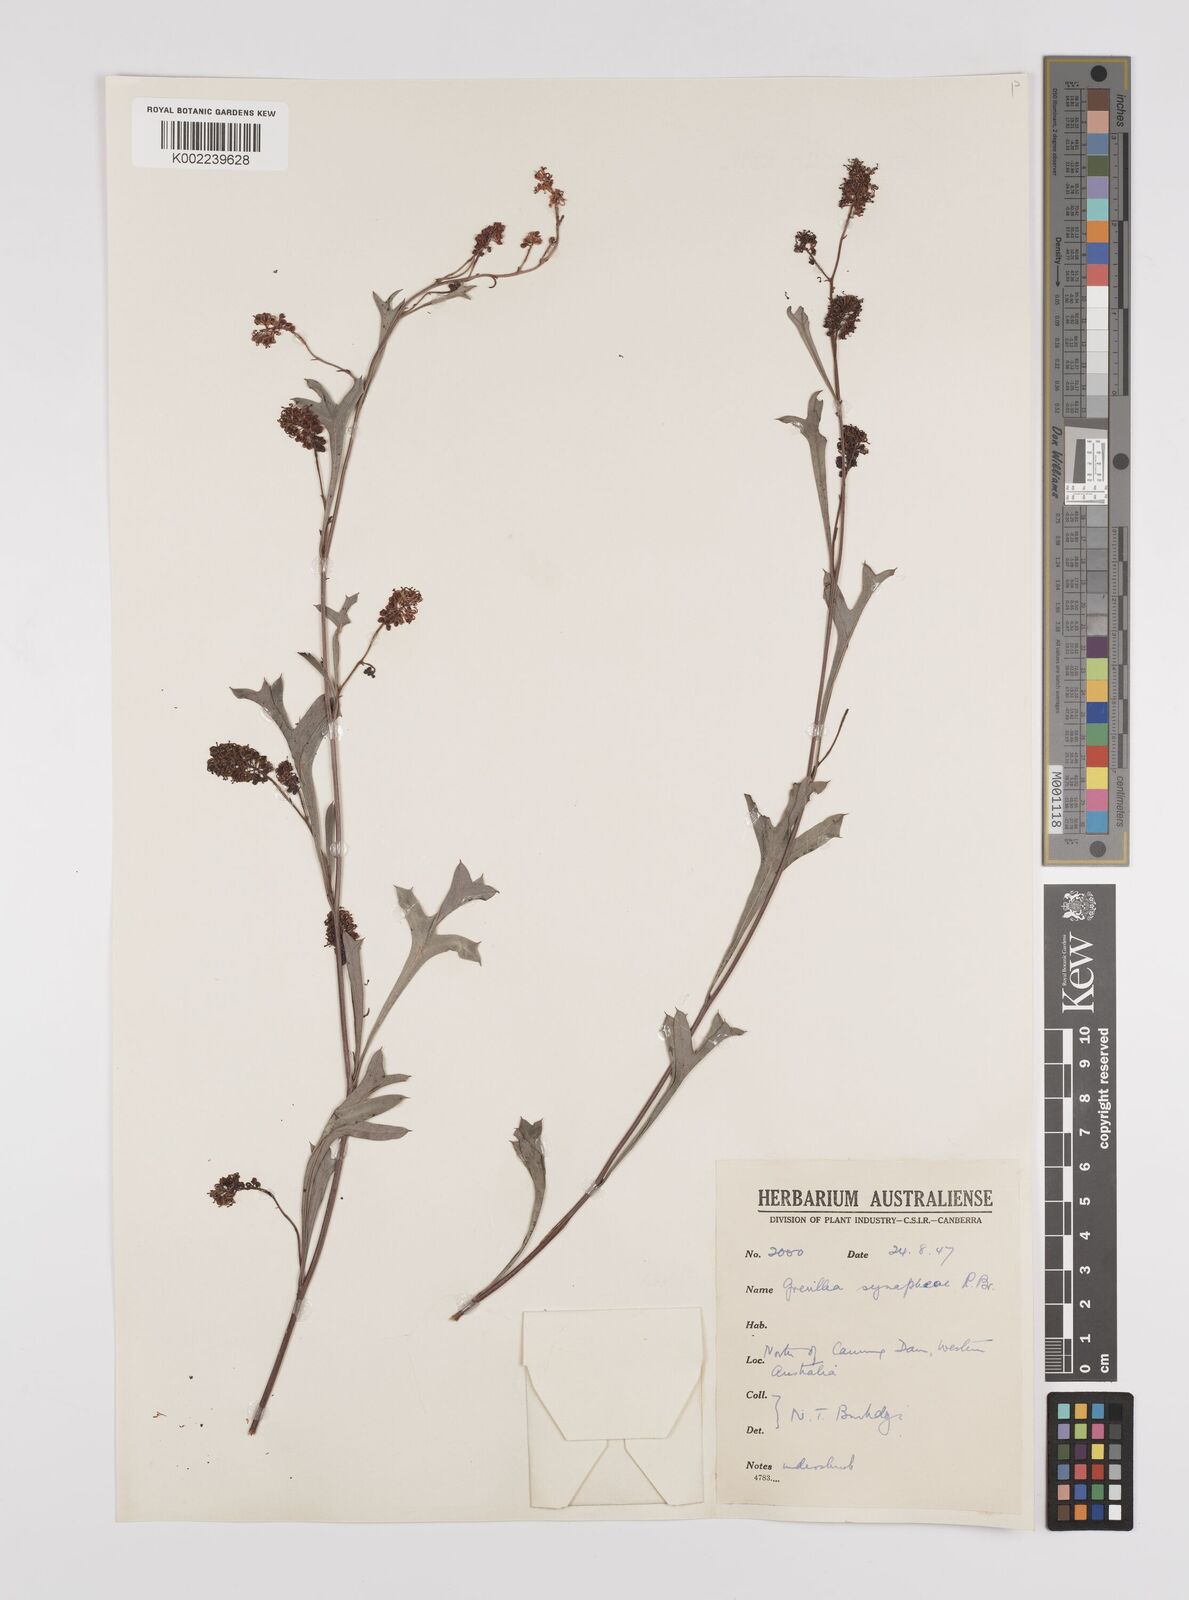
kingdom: Plantae
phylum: Tracheophyta
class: Magnoliopsida
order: Proteales
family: Proteaceae
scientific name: Proteaceae
